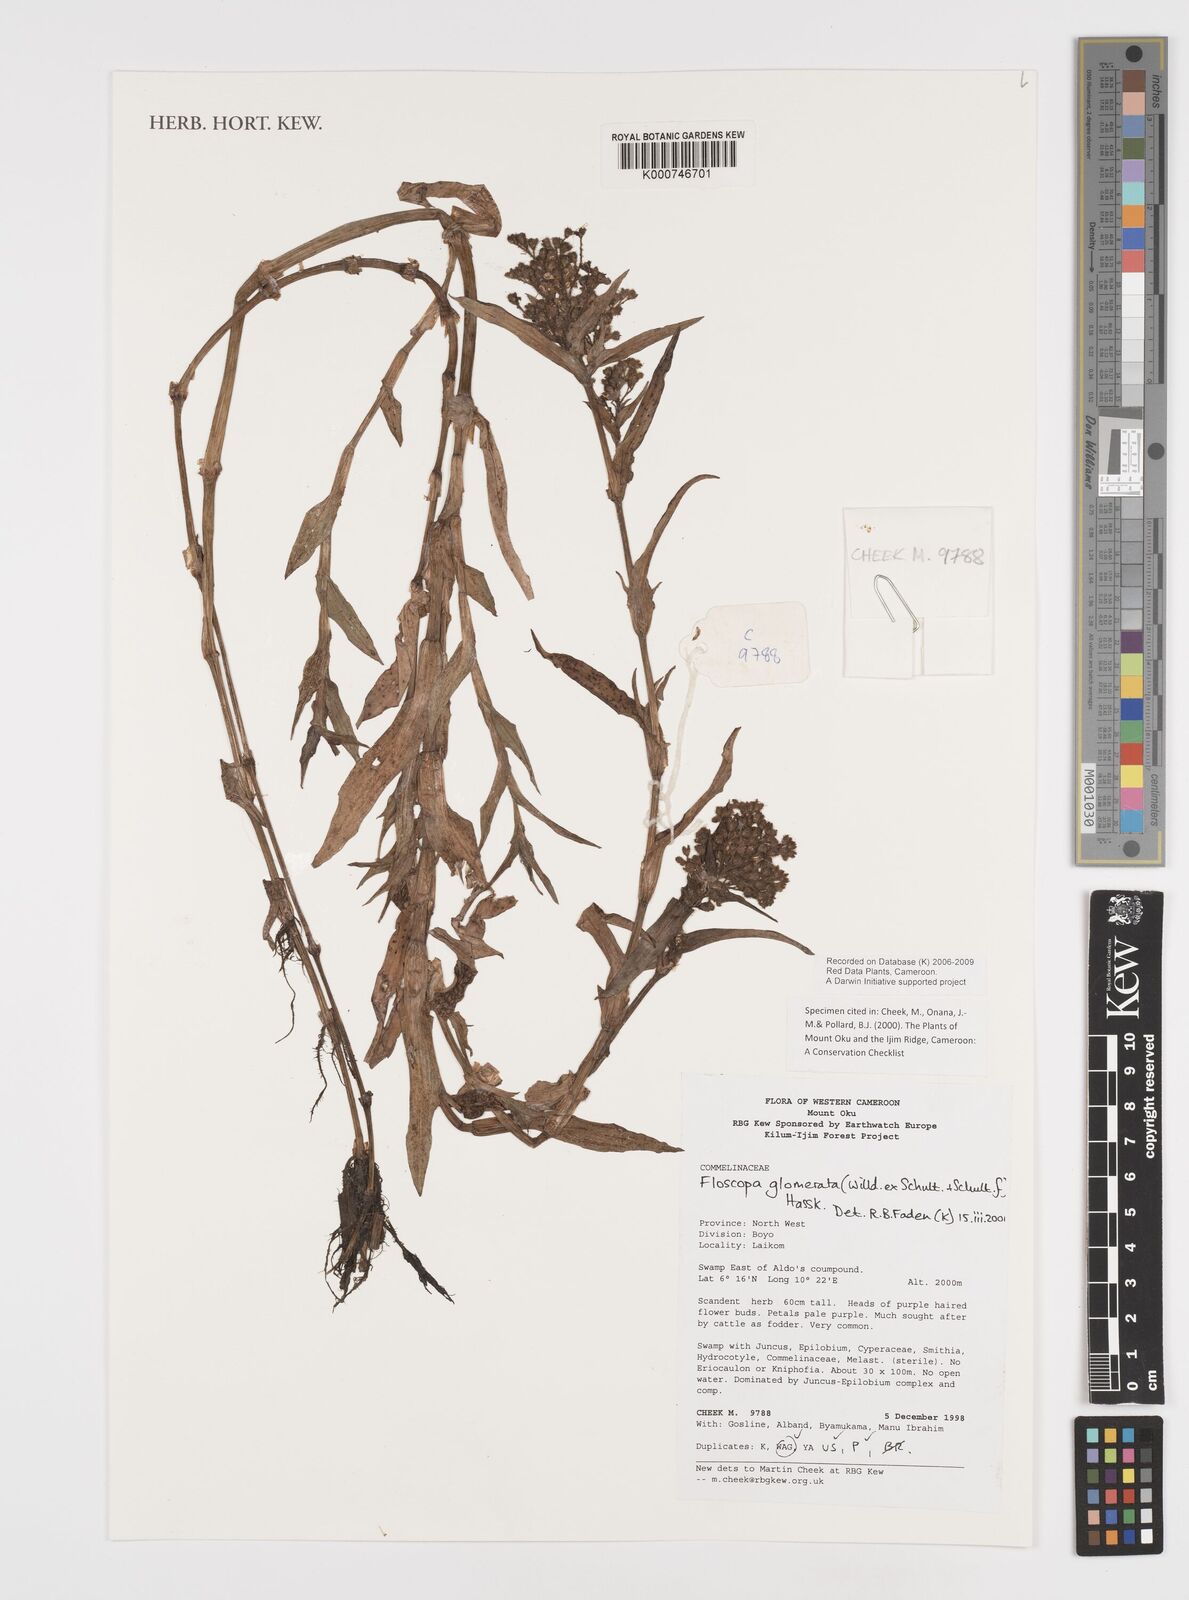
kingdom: Plantae
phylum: Tracheophyta
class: Liliopsida
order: Commelinales
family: Commelinaceae
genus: Floscopa
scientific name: Floscopa
